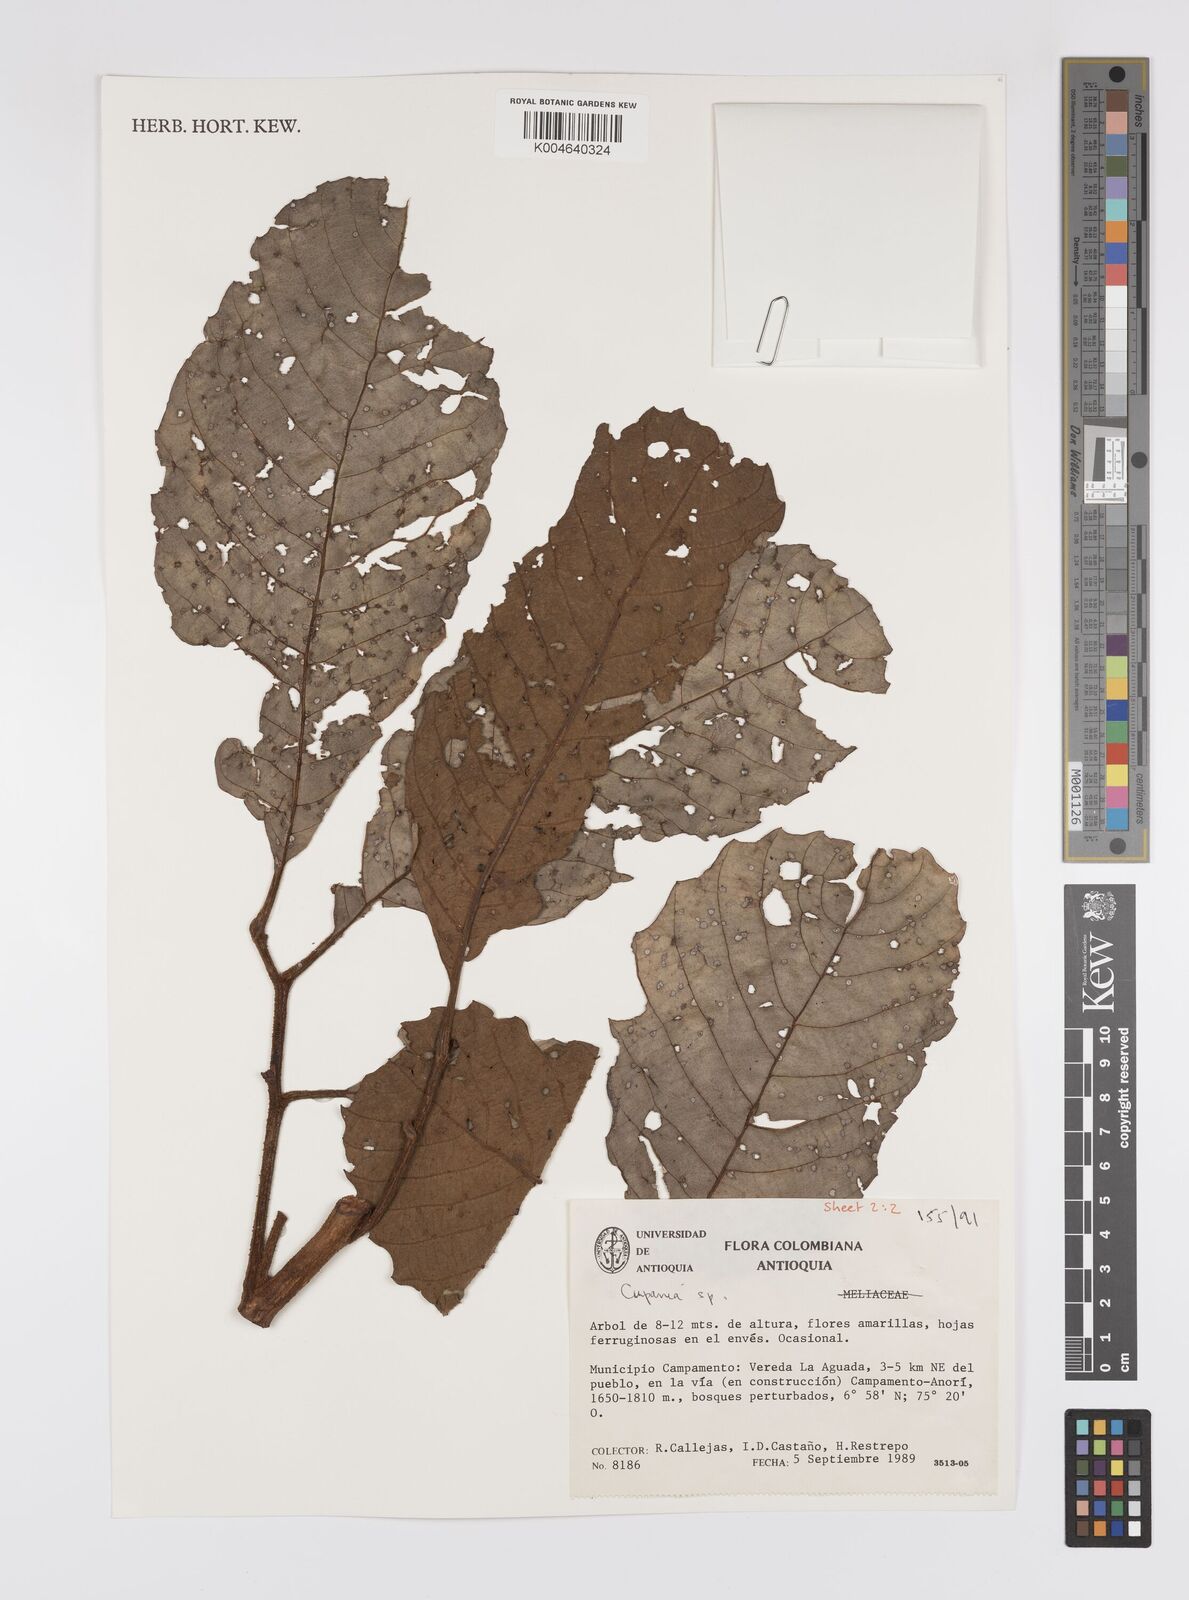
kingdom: Plantae
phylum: Tracheophyta
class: Magnoliopsida
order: Sapindales
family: Sapindaceae
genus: Cupania
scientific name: Cupania
